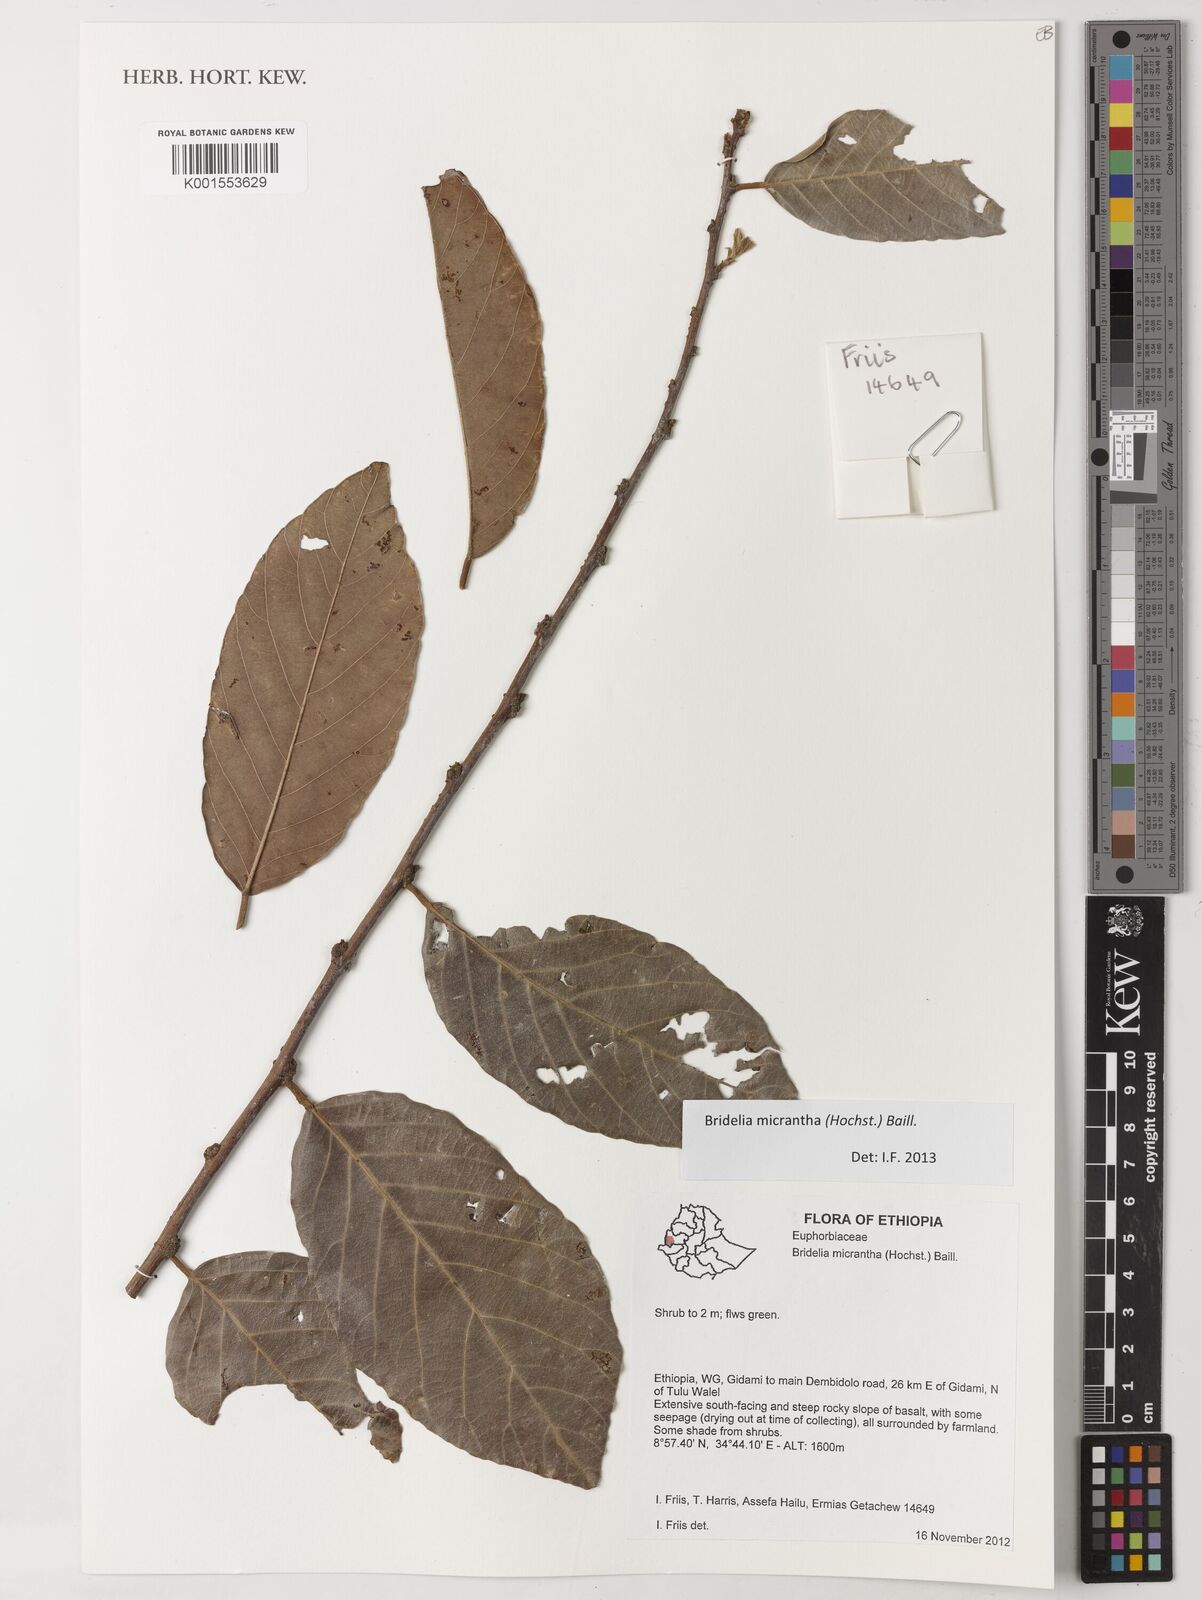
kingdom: Plantae
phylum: Tracheophyta
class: Magnoliopsida
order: Malpighiales
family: Phyllanthaceae
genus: Bridelia
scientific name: Bridelia micrantha
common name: Bridelia
